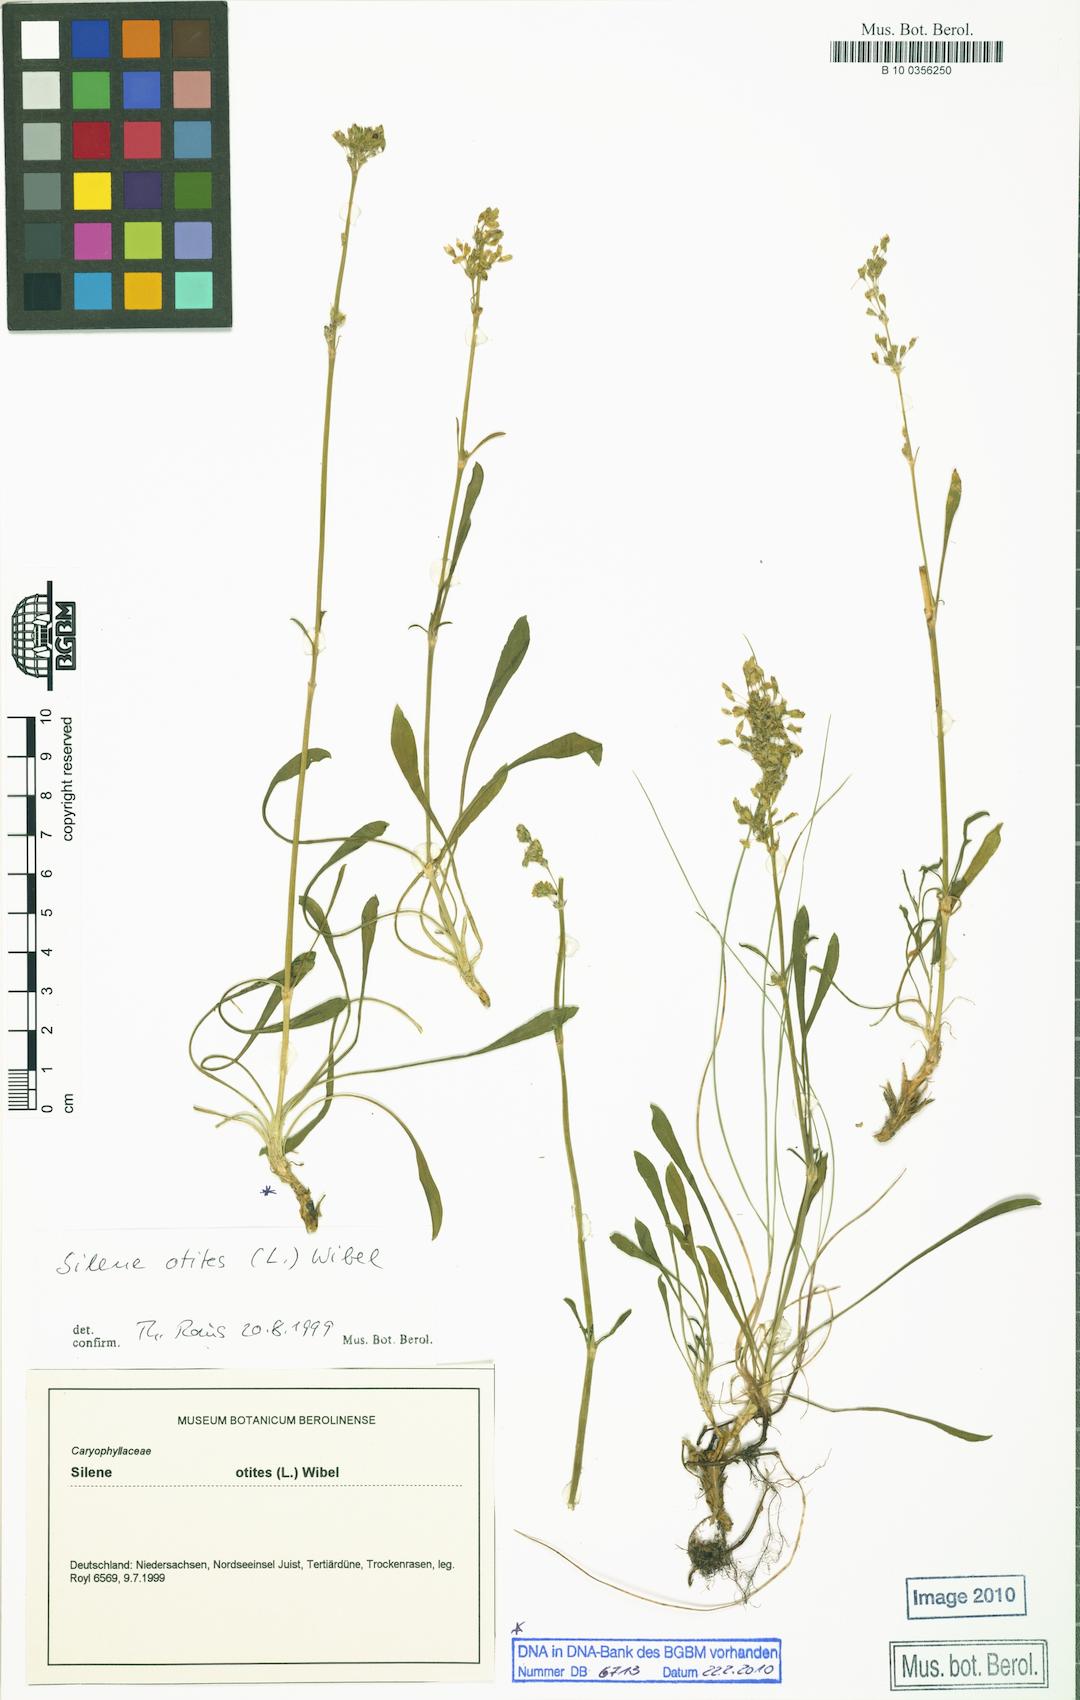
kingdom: Plantae
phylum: Tracheophyta
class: Magnoliopsida
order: Caryophyllales
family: Caryophyllaceae
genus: Silene
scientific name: Silene otites
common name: Spanish catchfly
